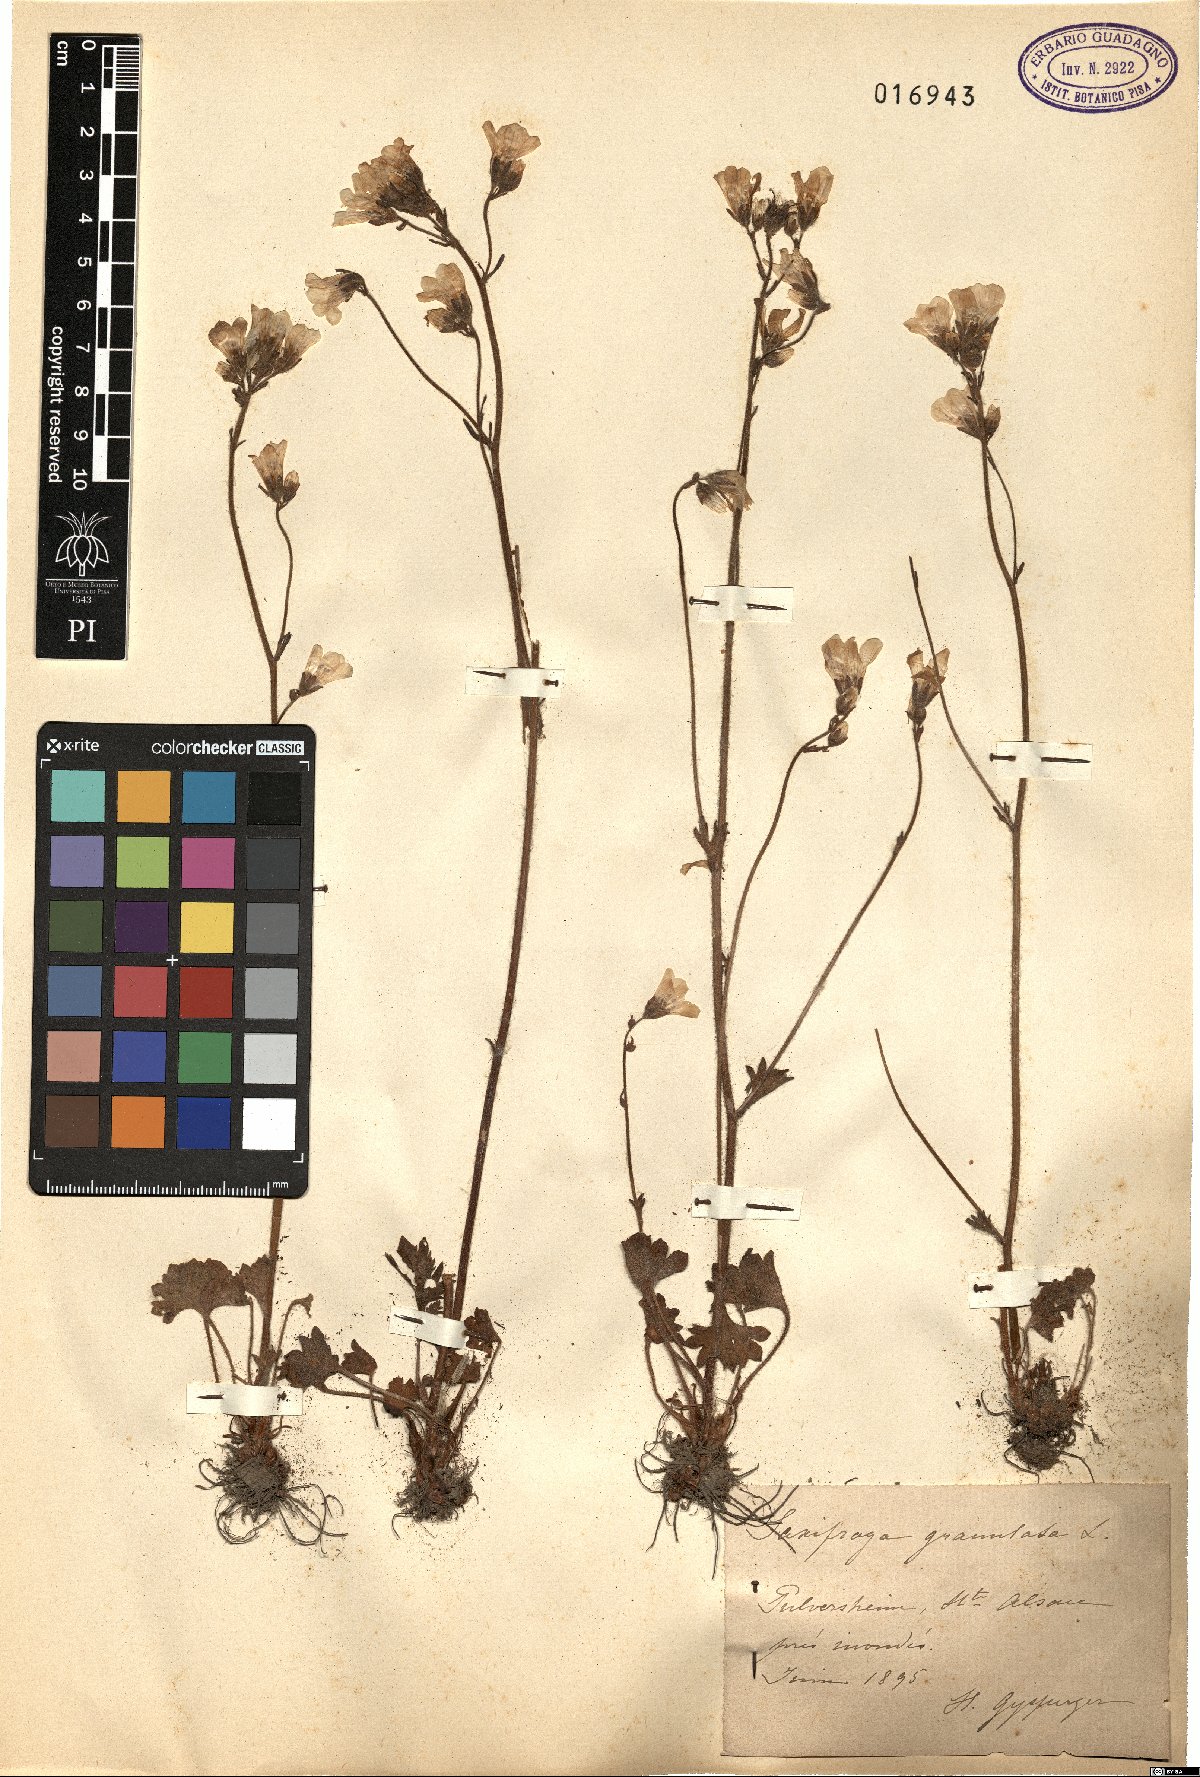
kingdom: Plantae
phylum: Tracheophyta
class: Magnoliopsida
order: Saxifragales
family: Saxifragaceae
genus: Saxifraga
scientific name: Saxifraga granulata
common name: Meadow saxifrage
